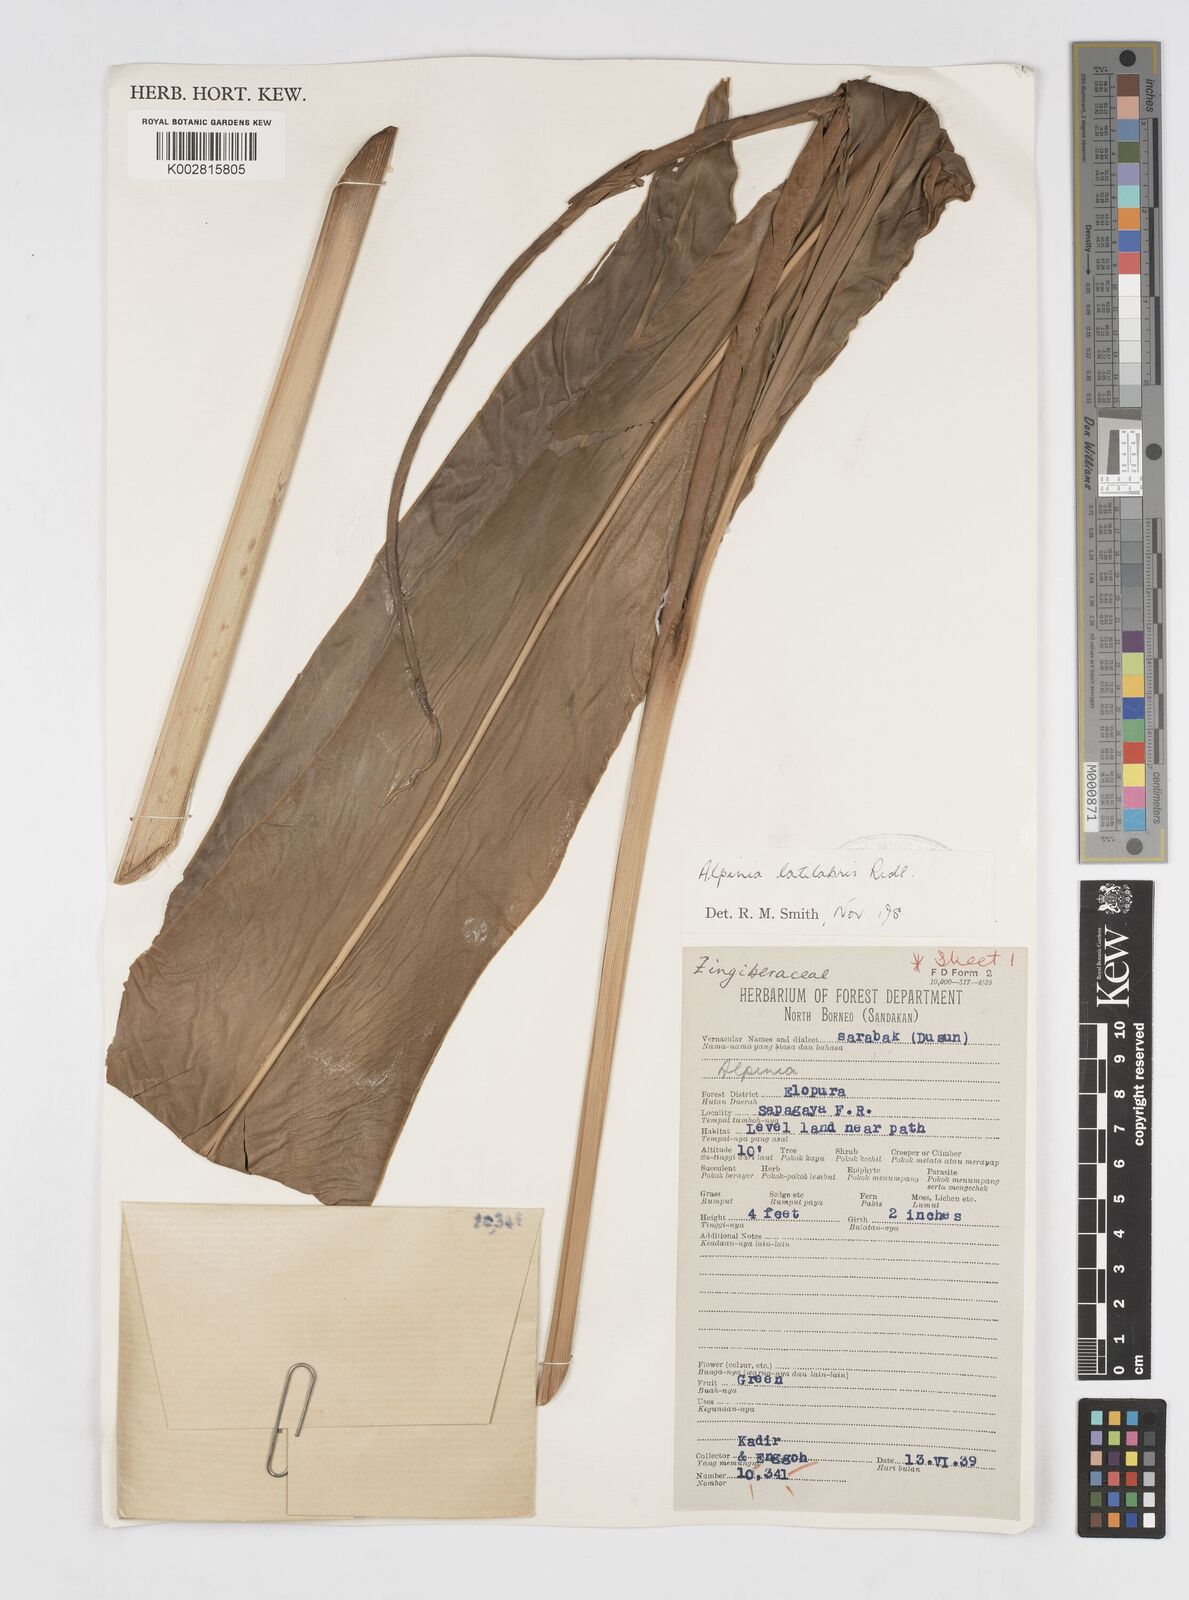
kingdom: Plantae
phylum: Tracheophyta
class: Liliopsida
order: Zingiberales
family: Zingiberaceae
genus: Alpinia
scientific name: Alpinia latilabris
